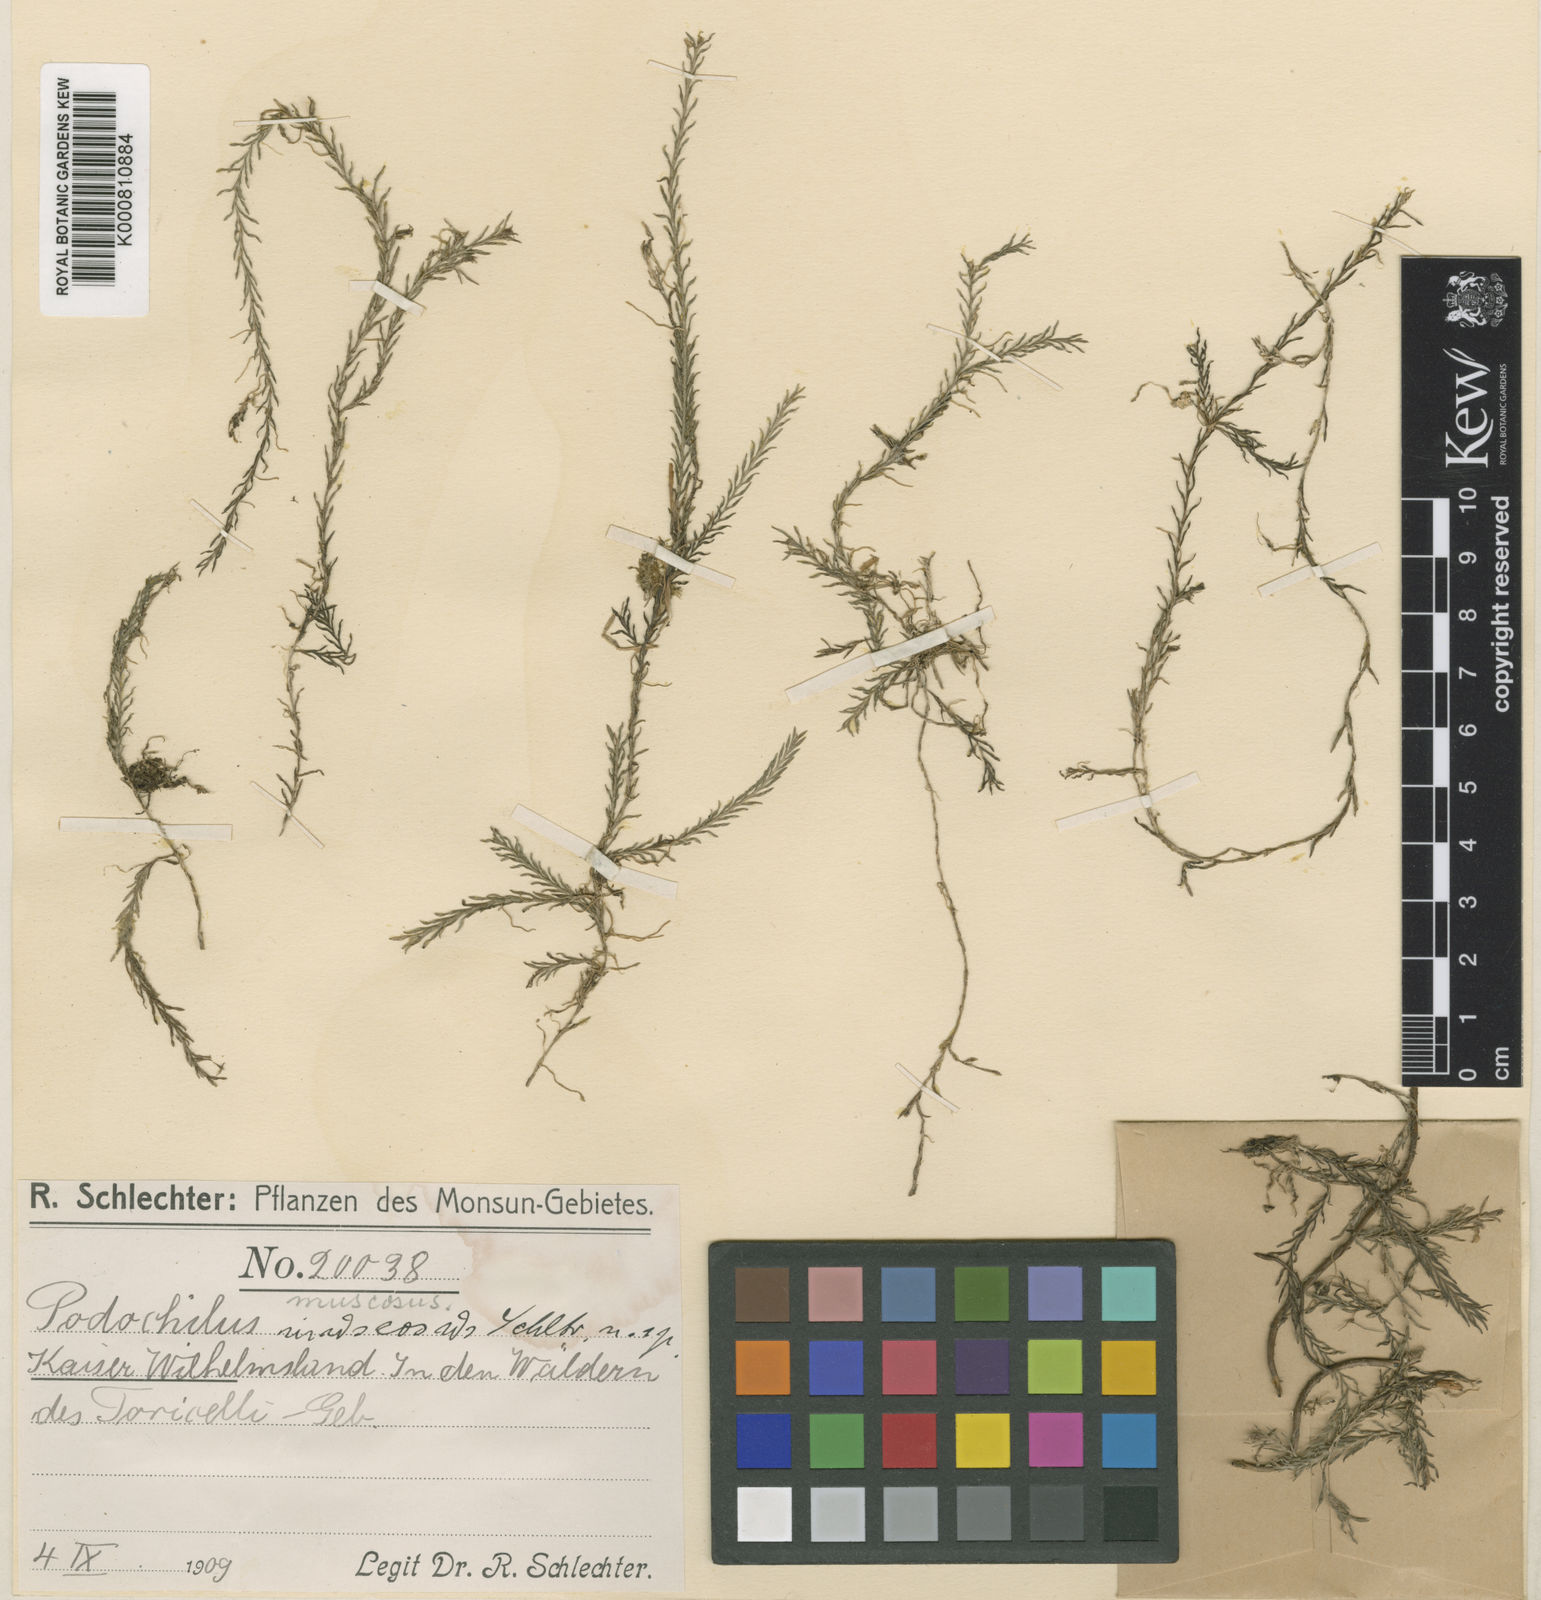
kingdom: Plantae
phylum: Tracheophyta
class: Liliopsida
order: Asparagales
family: Orchidaceae
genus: Podochilus
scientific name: Podochilus polytrichoides
